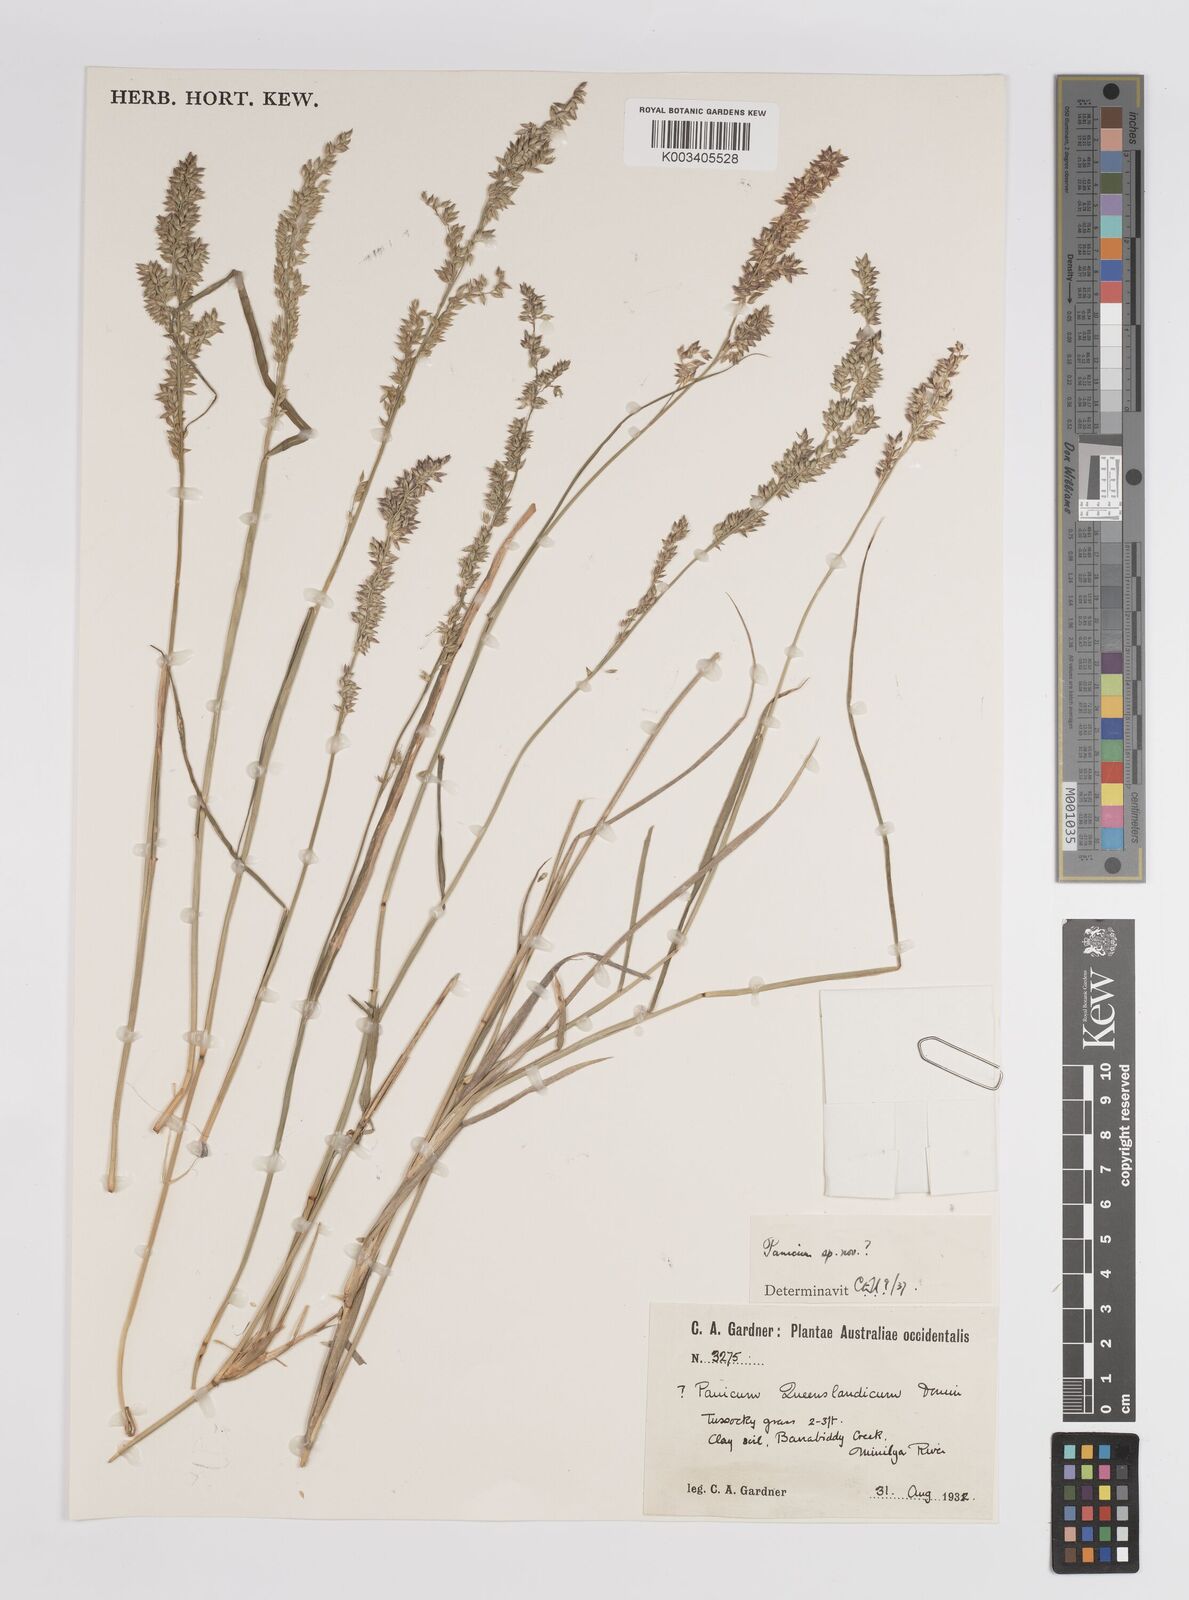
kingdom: Plantae
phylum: Tracheophyta
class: Liliopsida
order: Poales
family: Poaceae
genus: Panicum
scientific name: Panicum
